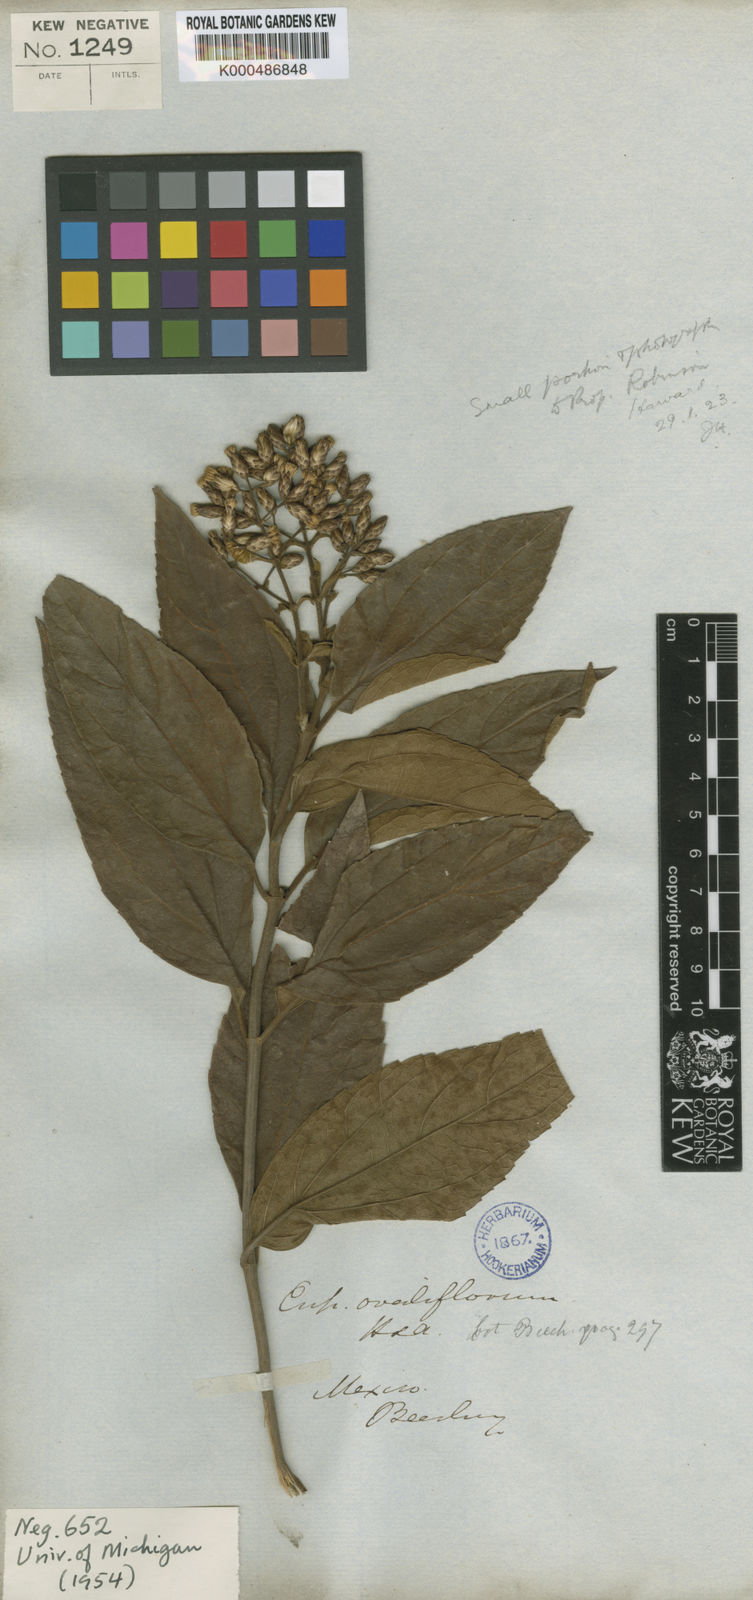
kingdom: Plantae
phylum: Tracheophyta
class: Magnoliopsida
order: Asterales
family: Asteraceae
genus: Chromolaena
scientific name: Chromolaena ovaliflora
